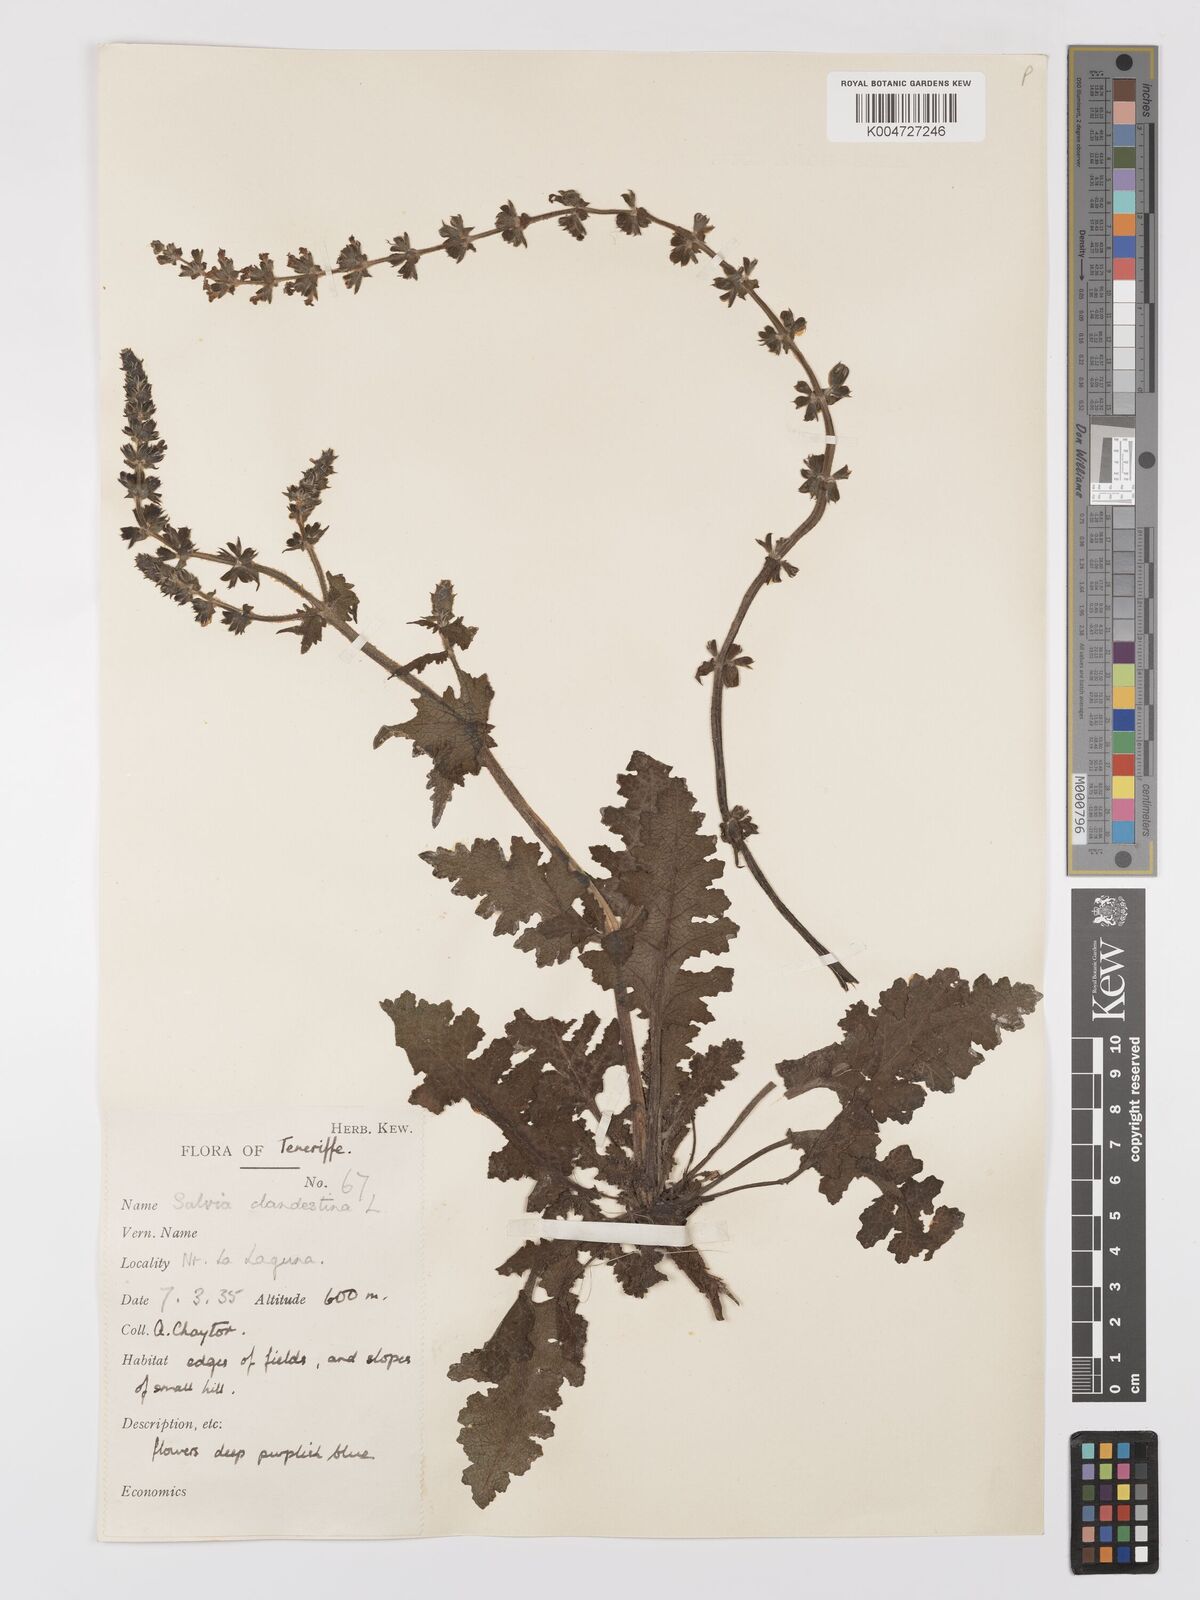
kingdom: Plantae
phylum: Tracheophyta
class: Magnoliopsida
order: Lamiales
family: Lamiaceae
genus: Salvia
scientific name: Salvia verbenaca
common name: Wild clary
